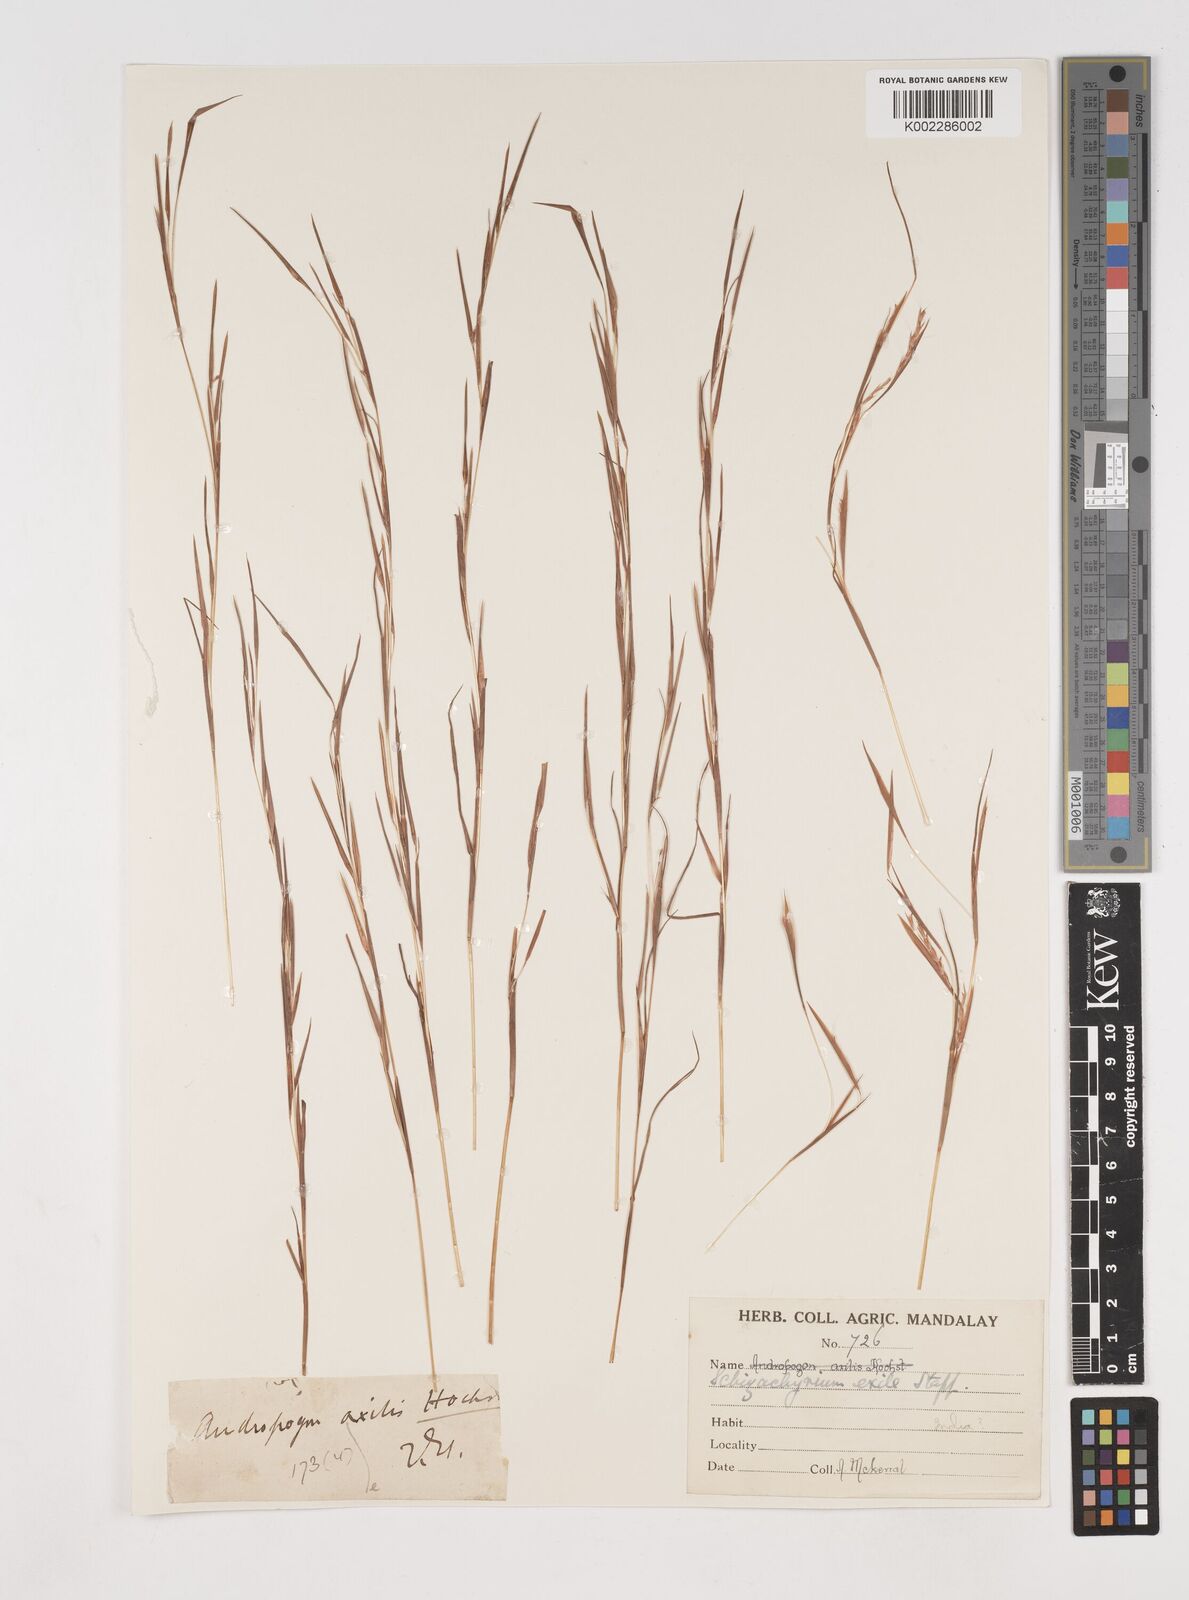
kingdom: Plantae
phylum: Tracheophyta
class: Liliopsida
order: Poales
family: Poaceae
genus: Schizachyrium
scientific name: Schizachyrium exile
